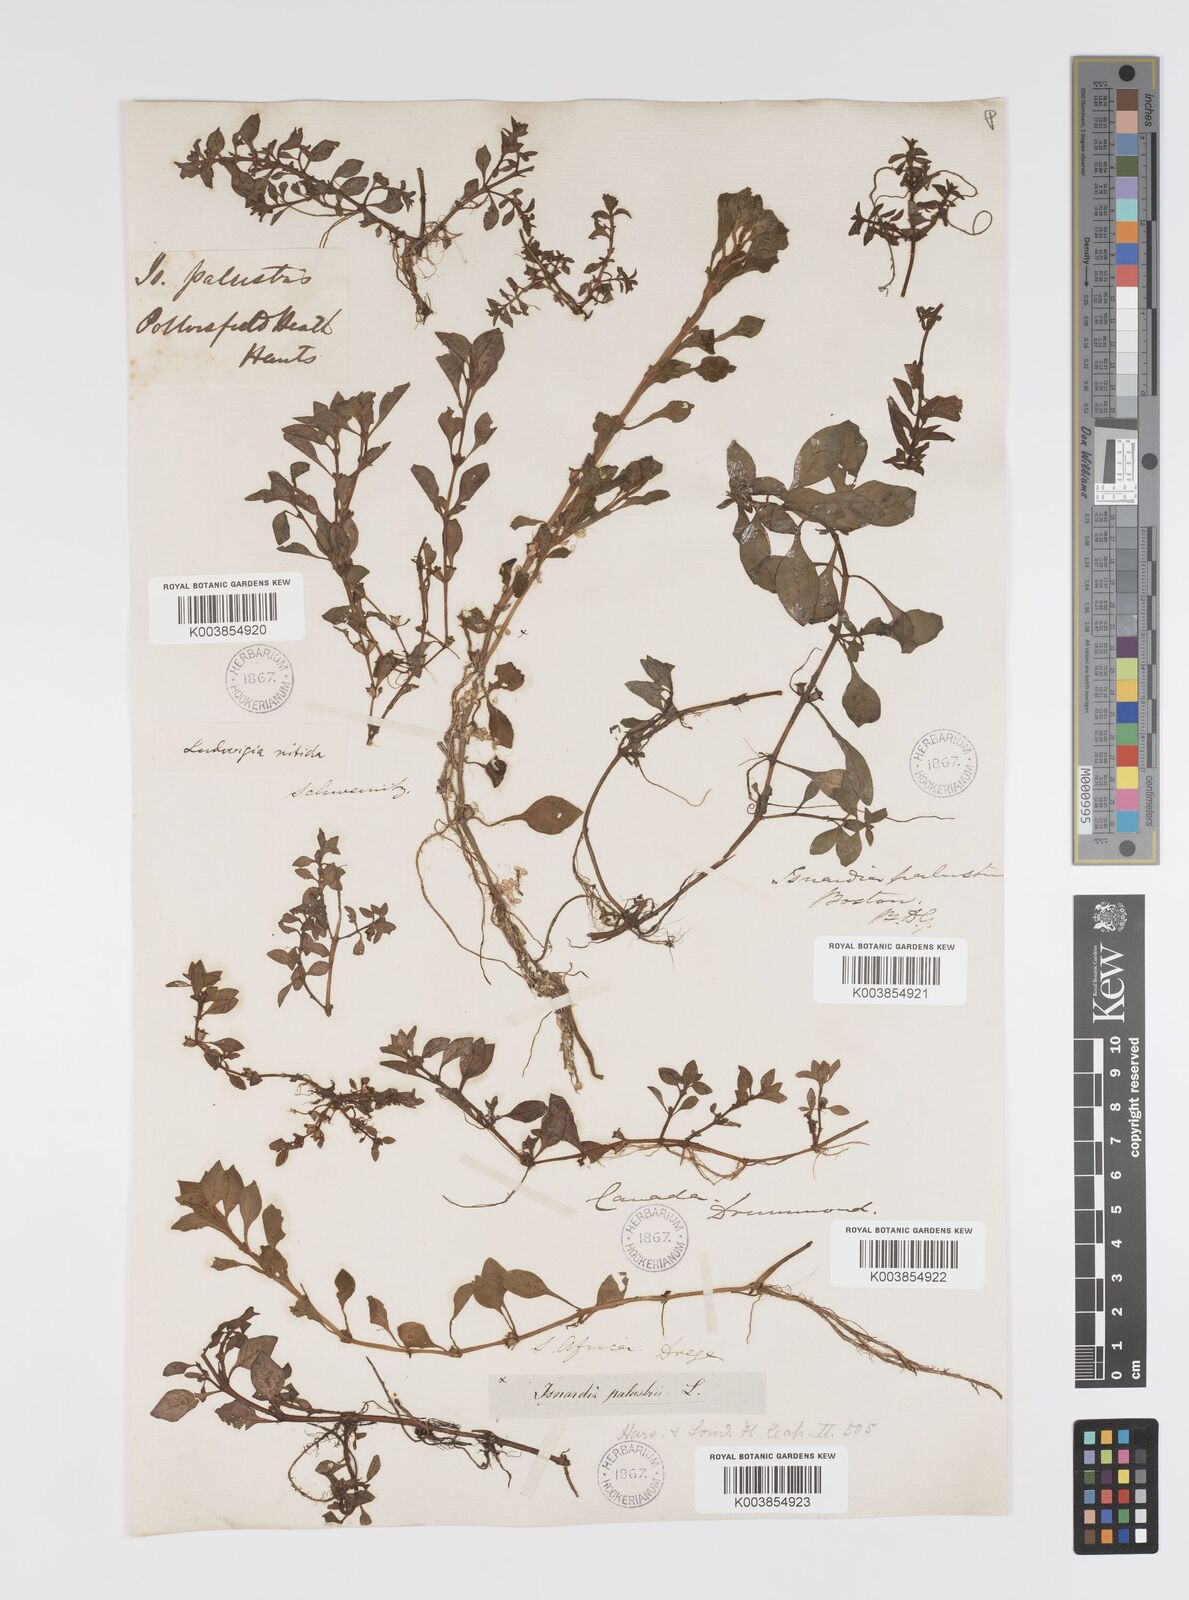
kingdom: Plantae
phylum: Tracheophyta
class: Magnoliopsida
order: Myrtales
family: Onagraceae
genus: Ludwigia
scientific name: Ludwigia palustris
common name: Hampshire-purslane
